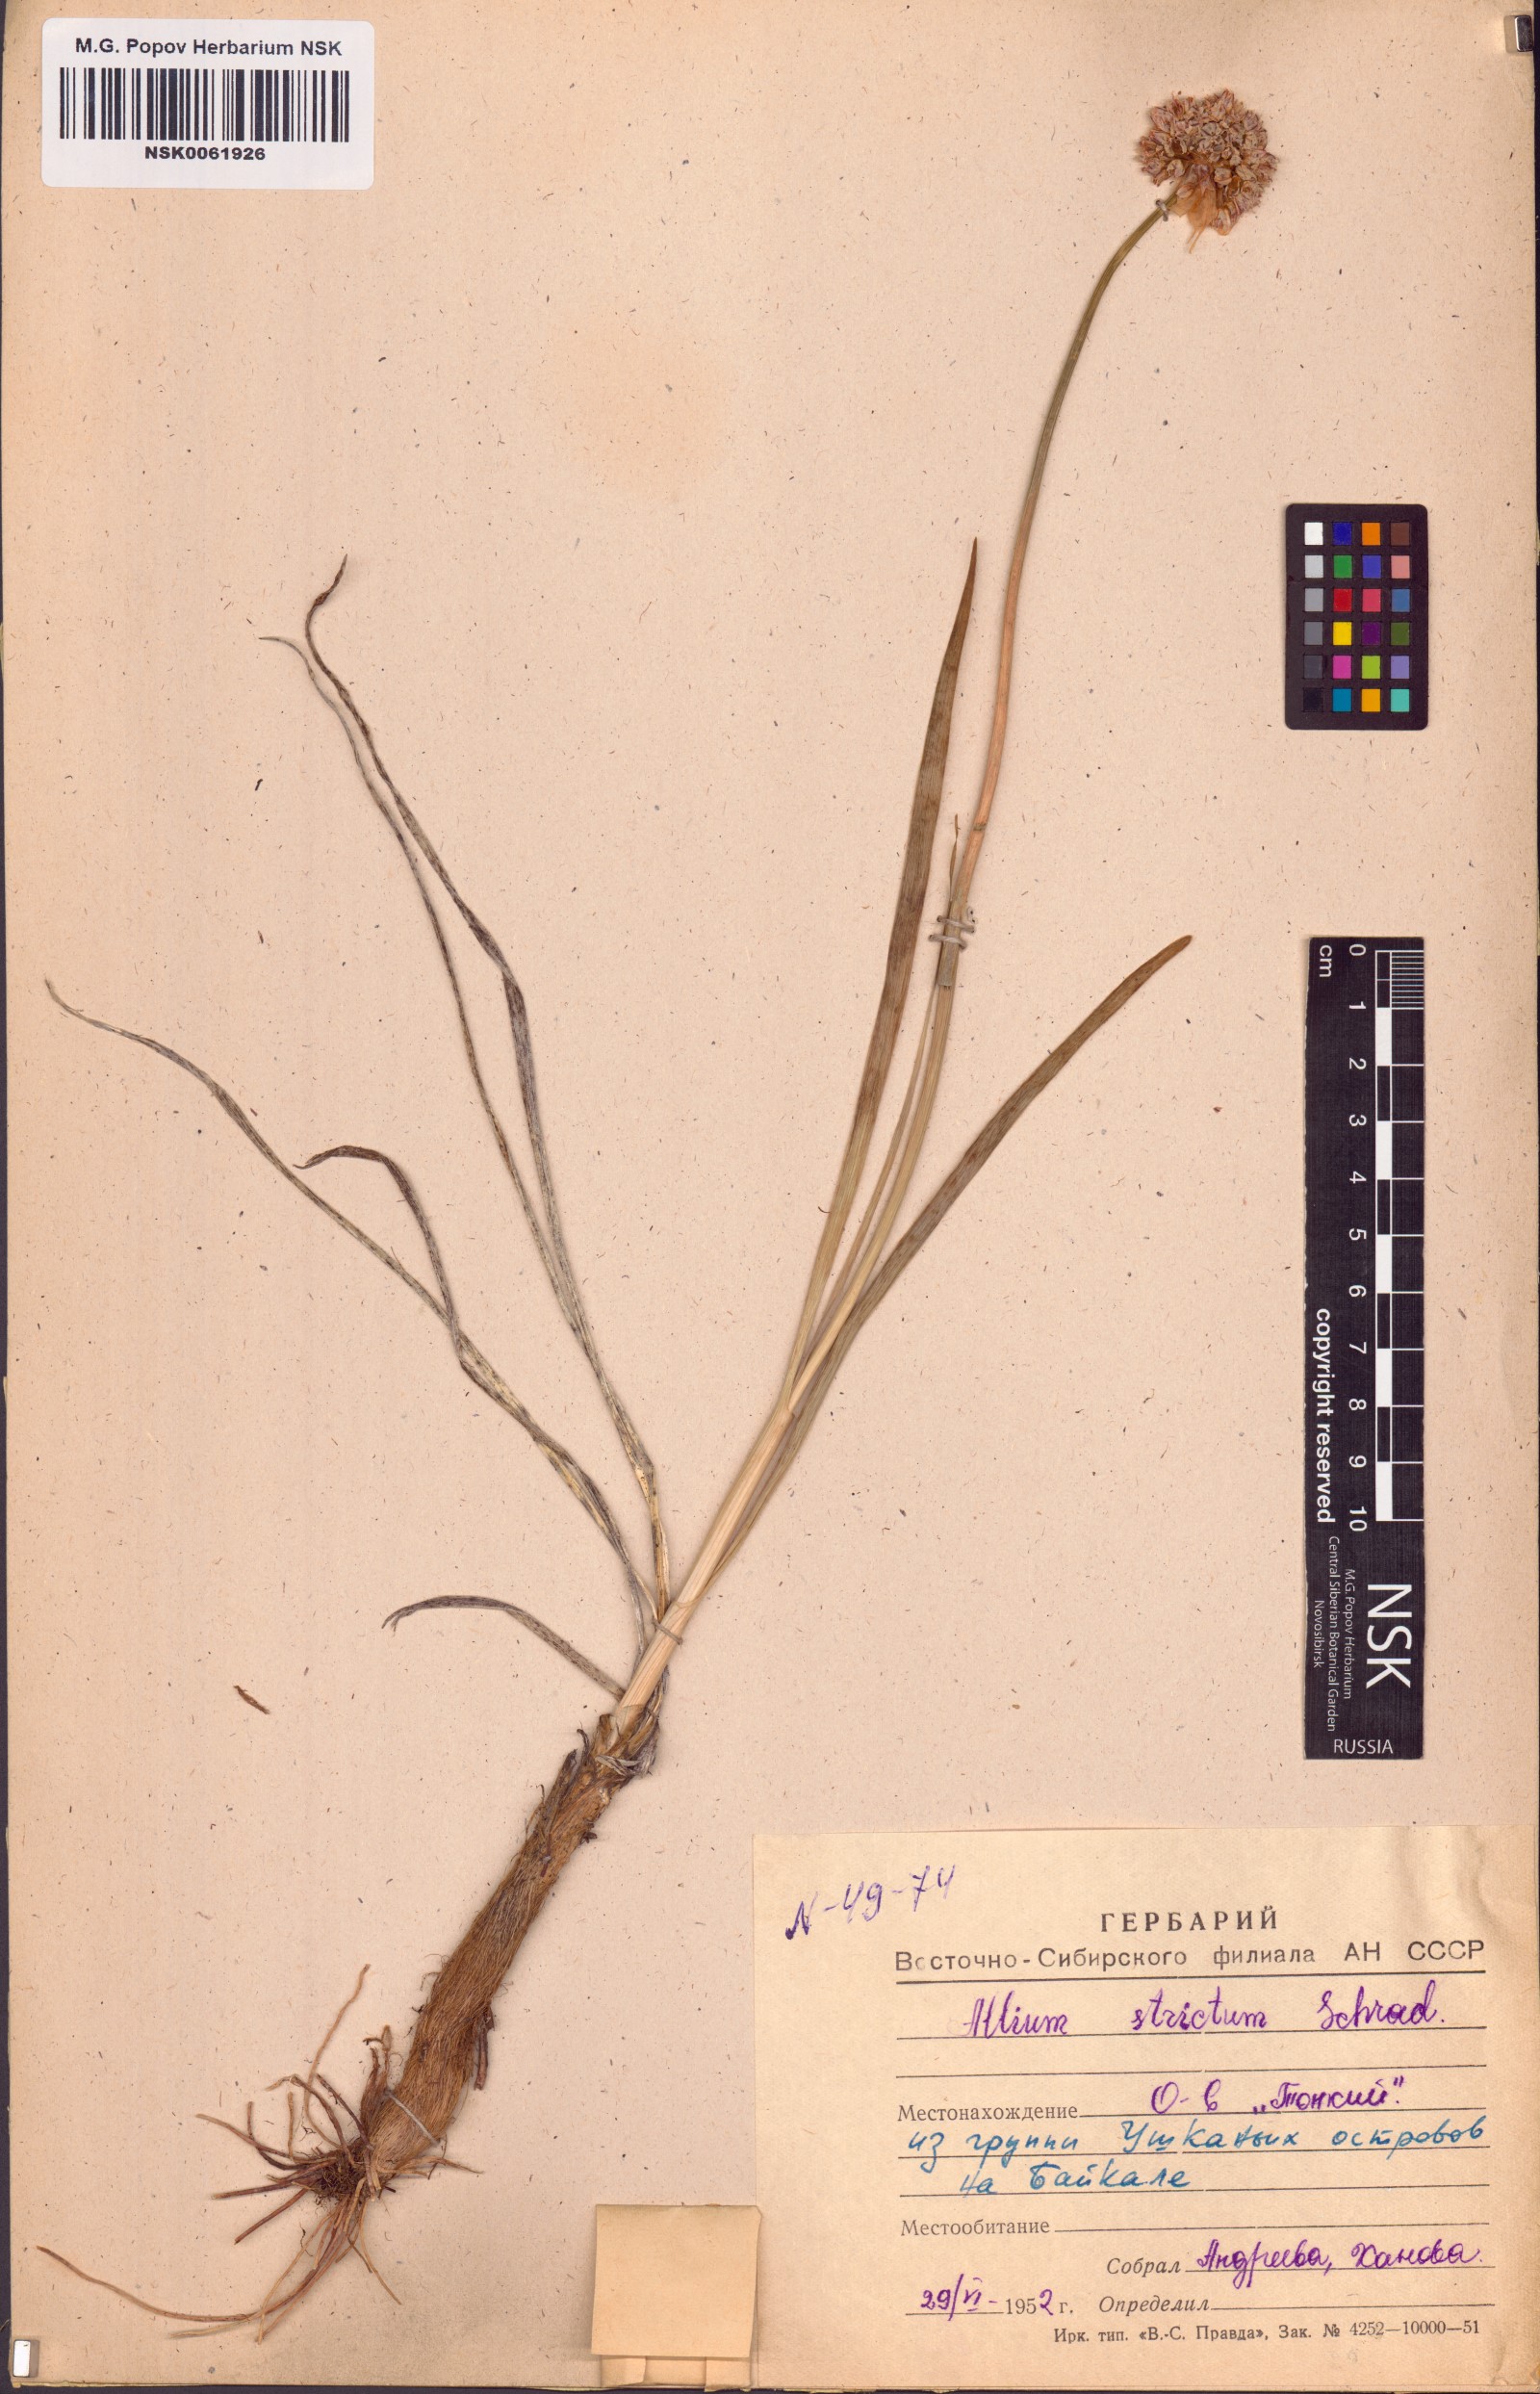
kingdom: Plantae
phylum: Tracheophyta
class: Liliopsida
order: Asparagales
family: Amaryllidaceae
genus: Allium
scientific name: Allium strictum
